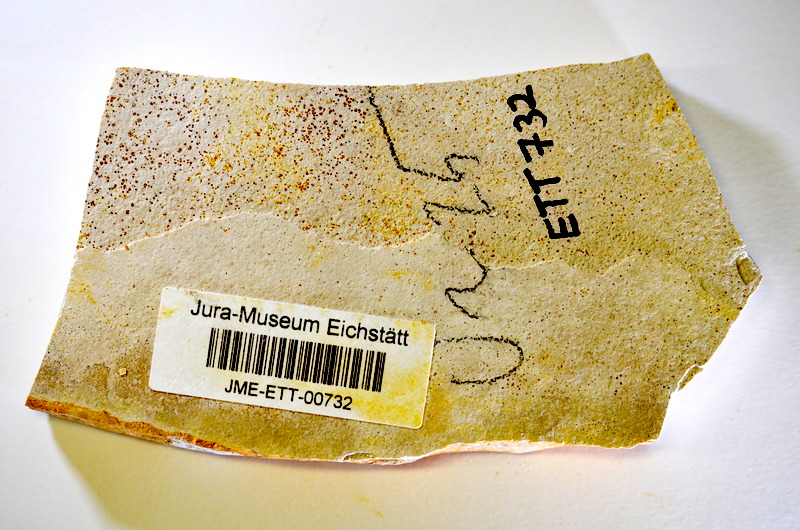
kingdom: Animalia
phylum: Chordata
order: Salmoniformes
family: Orthogonikleithridae
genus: Orthogonikleithrus
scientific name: Orthogonikleithrus hoelli
